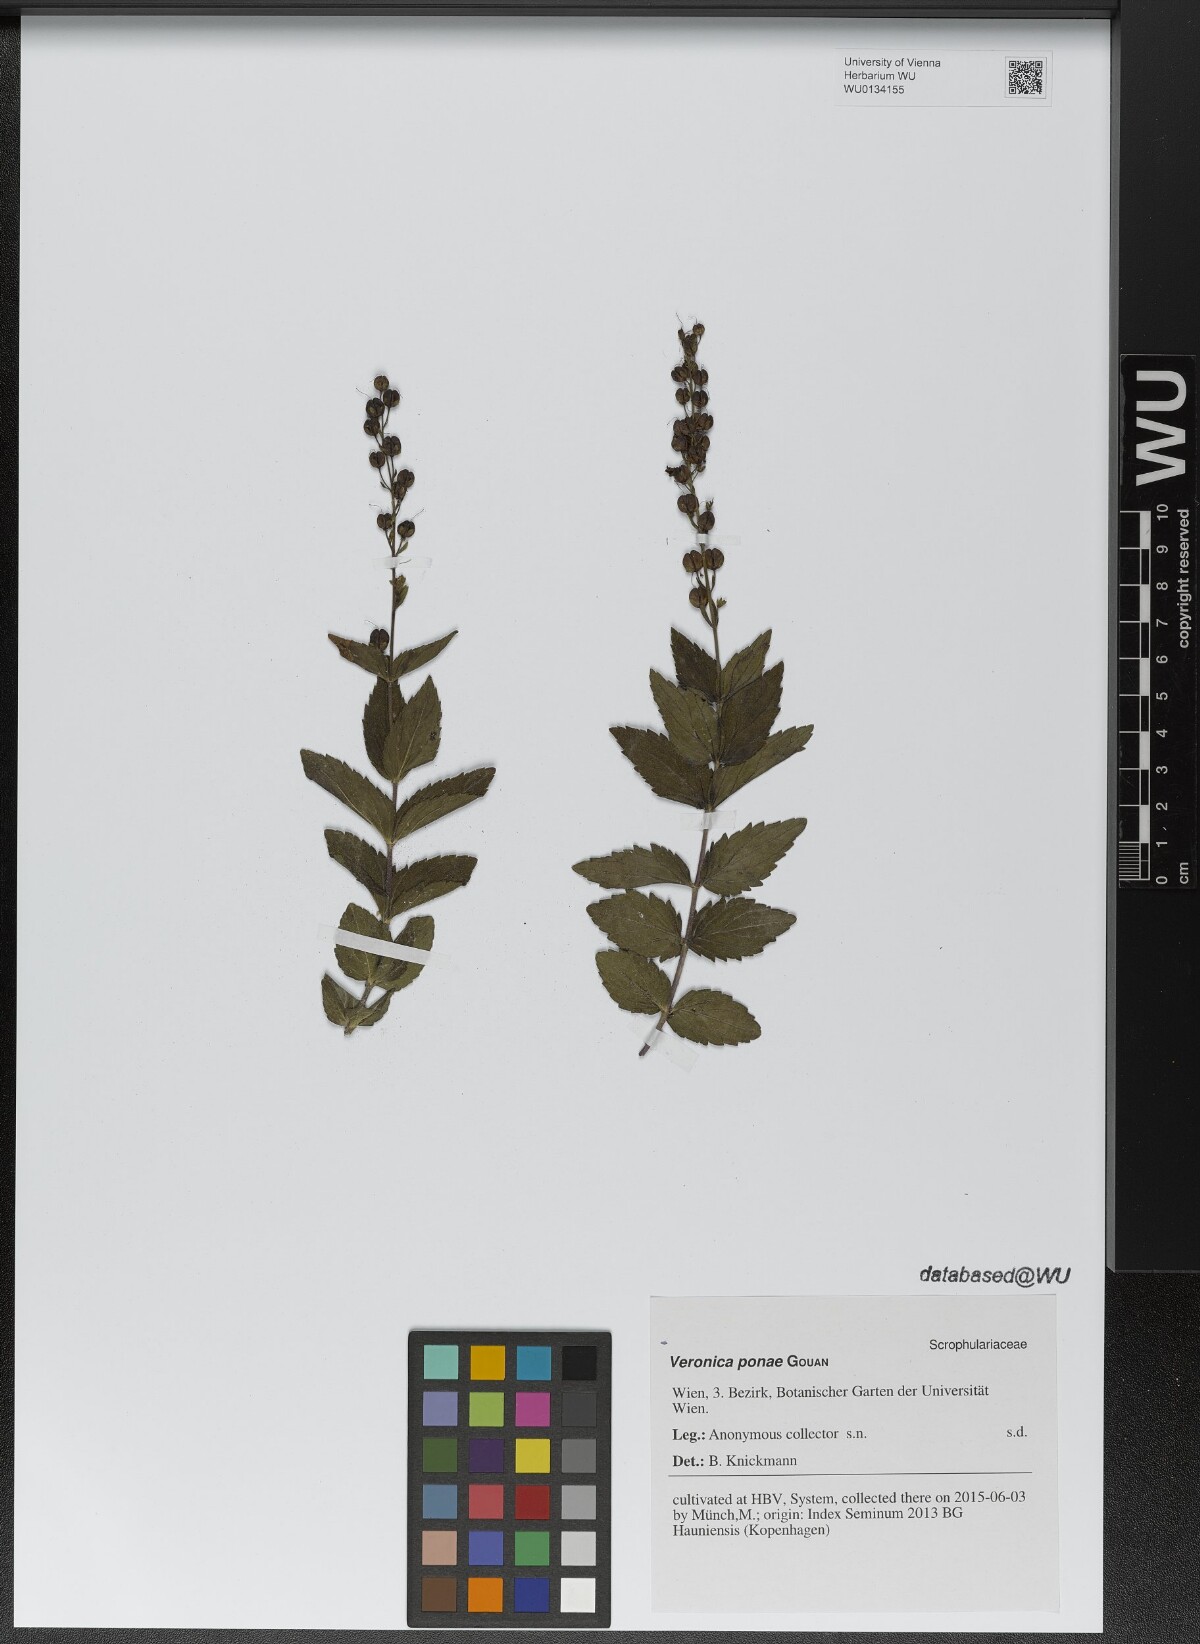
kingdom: Plantae
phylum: Tracheophyta
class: Magnoliopsida
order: Lamiales
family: Plantaginaceae
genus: Veronica
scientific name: Veronica ponae
